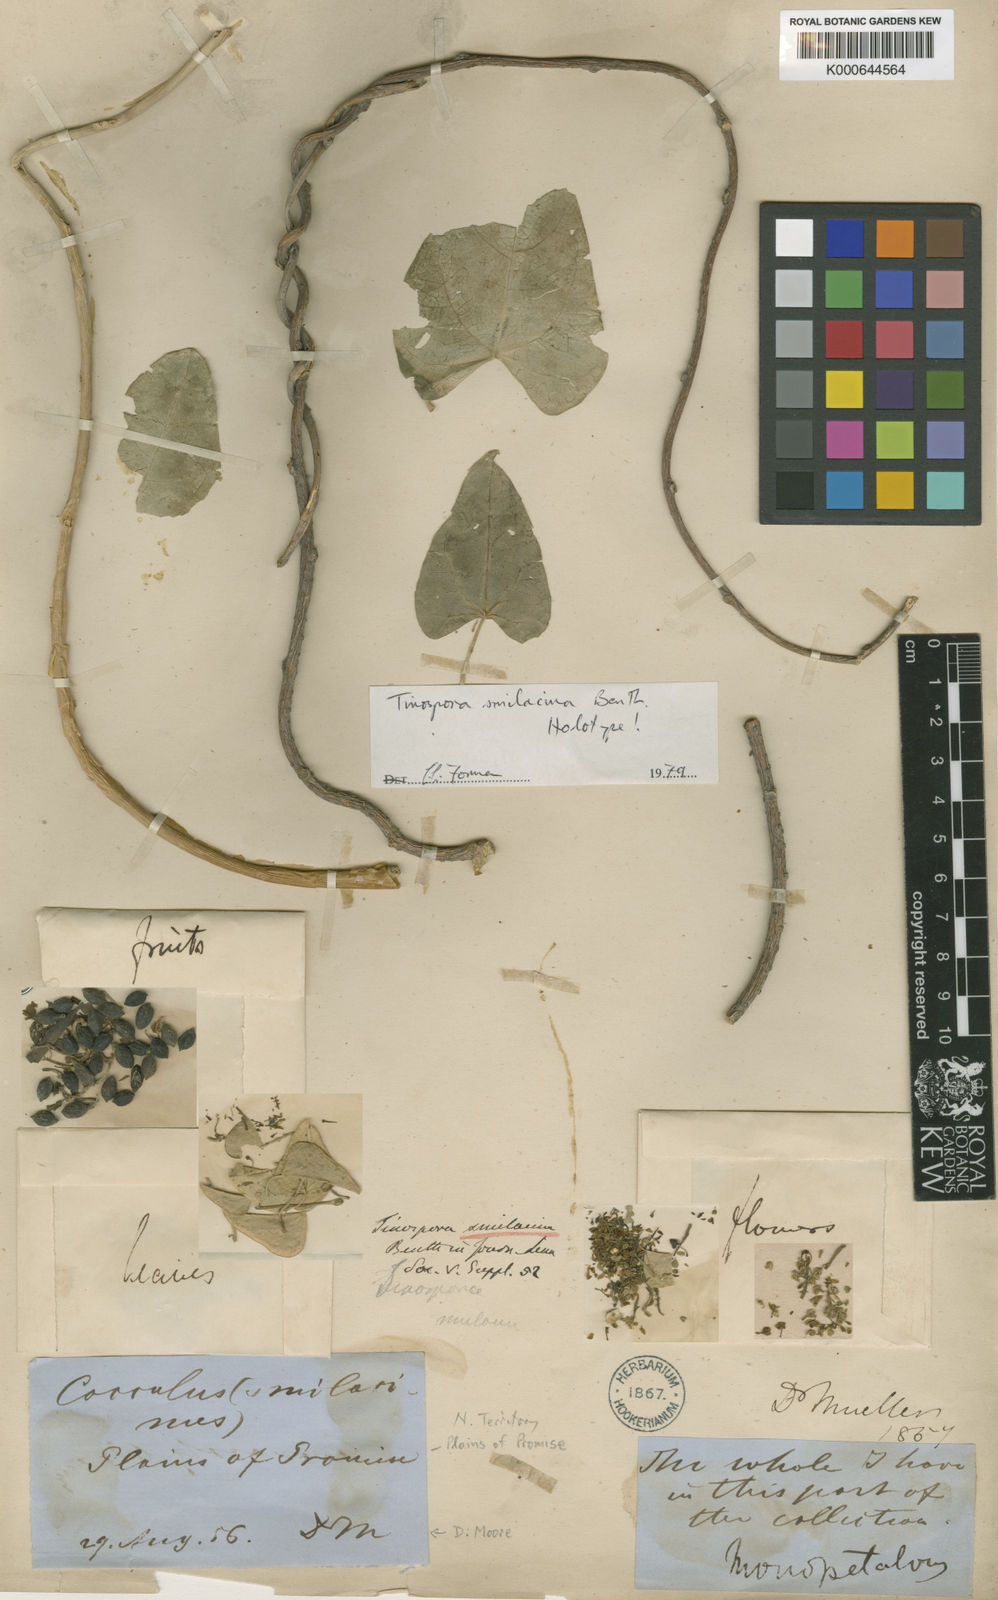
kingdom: Plantae
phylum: Tracheophyta
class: Magnoliopsida
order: Ranunculales
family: Menispermaceae
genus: Tinospora
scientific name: Tinospora smilacina
